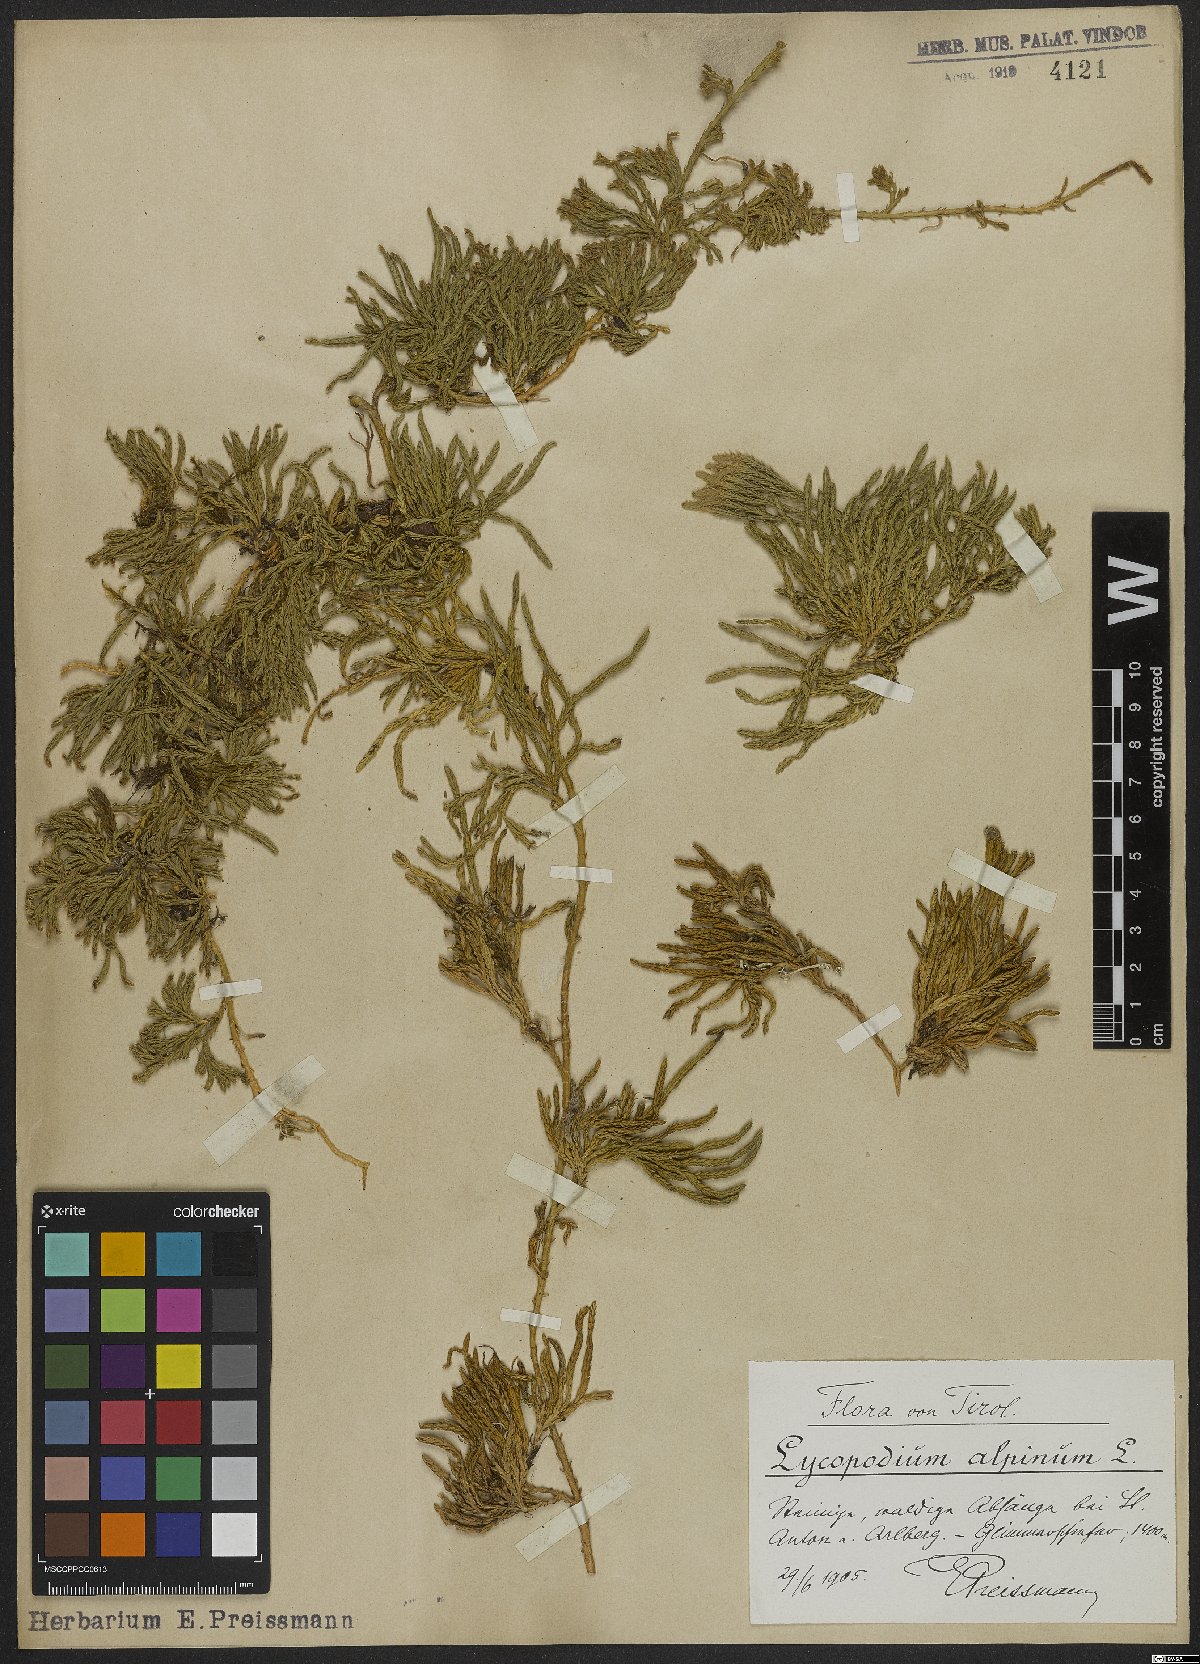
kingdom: Plantae
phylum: Tracheophyta
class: Lycopodiopsida
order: Lycopodiales
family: Lycopodiaceae
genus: Diphasiastrum
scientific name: Diphasiastrum alpinum
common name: Alpine clubmoss
